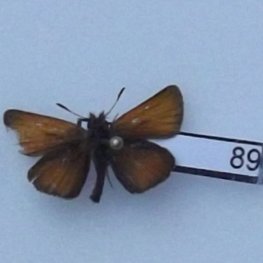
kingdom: Animalia
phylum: Arthropoda
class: Insecta
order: Lepidoptera
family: Hesperiidae
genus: Thymelicus
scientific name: Thymelicus lineola
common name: European Skipper
